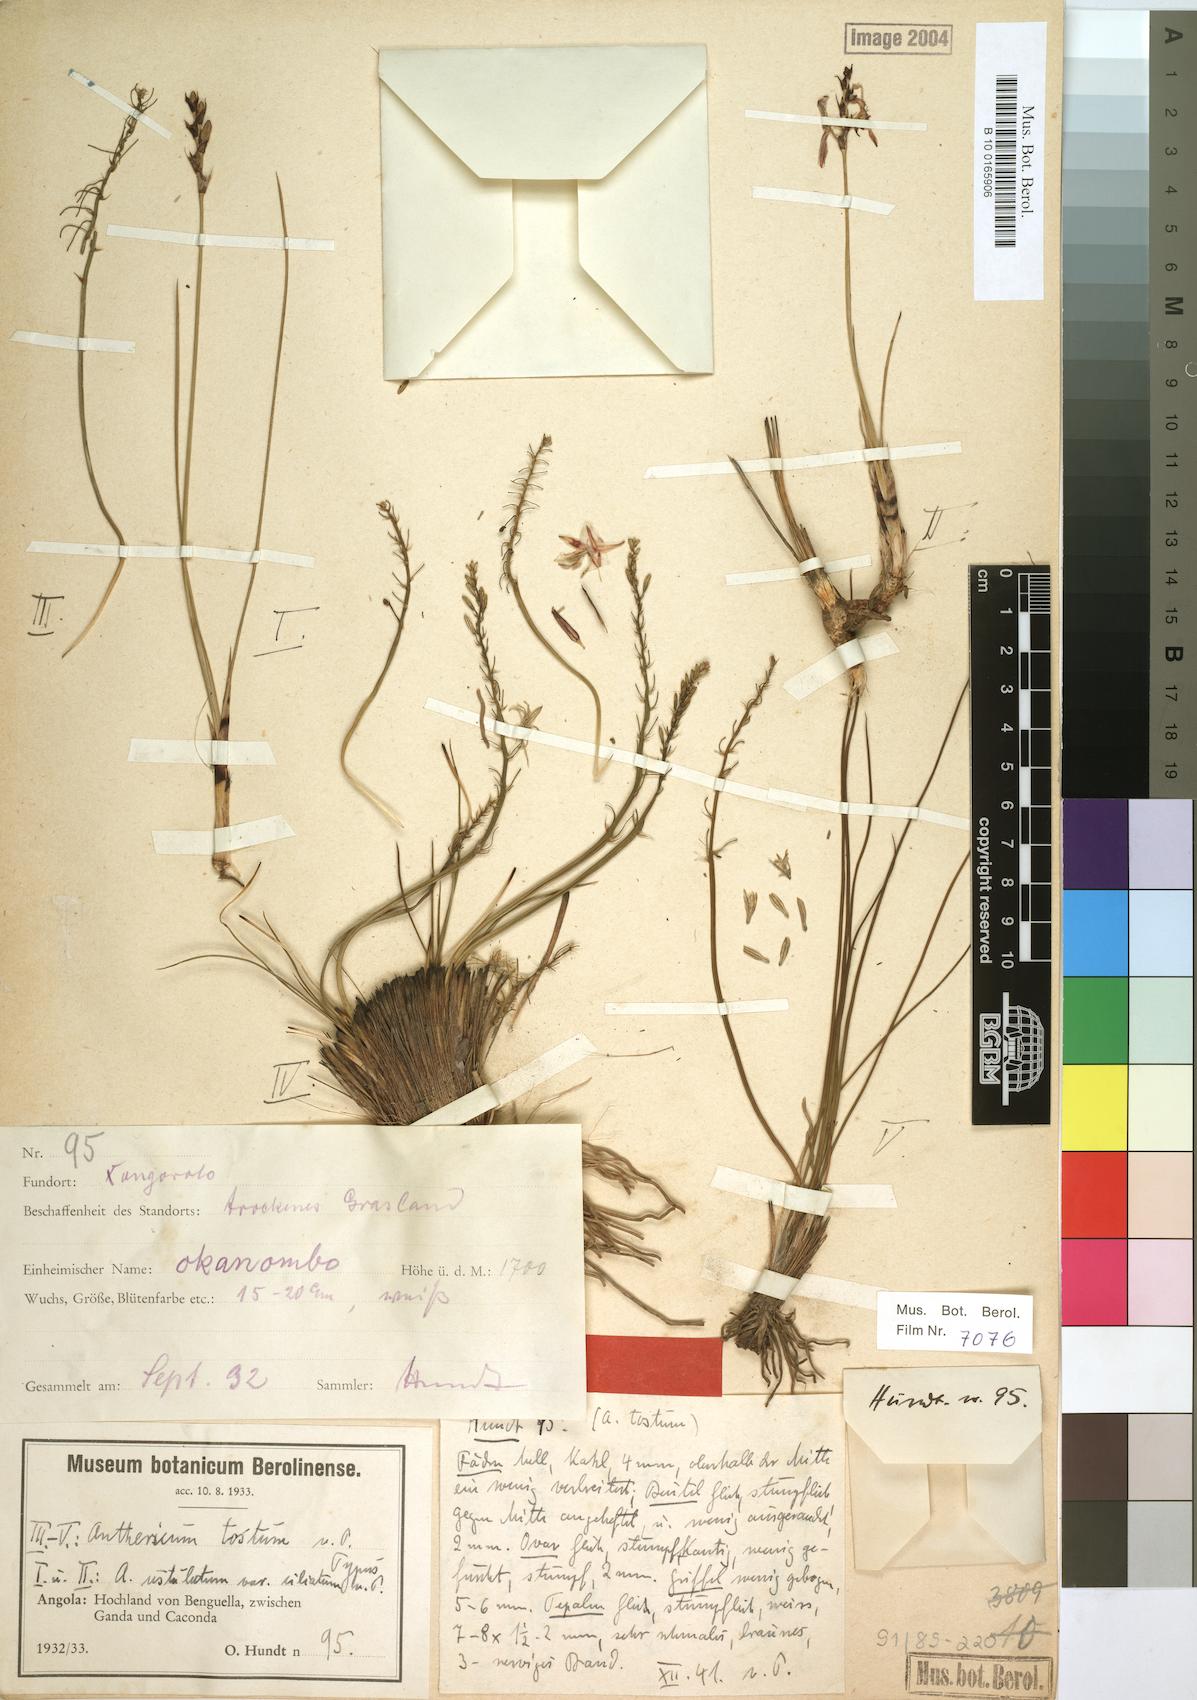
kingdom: Plantae
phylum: Tracheophyta
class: Liliopsida
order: Asparagales
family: Asparagaceae
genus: Anthericum
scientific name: Anthericum tostum
